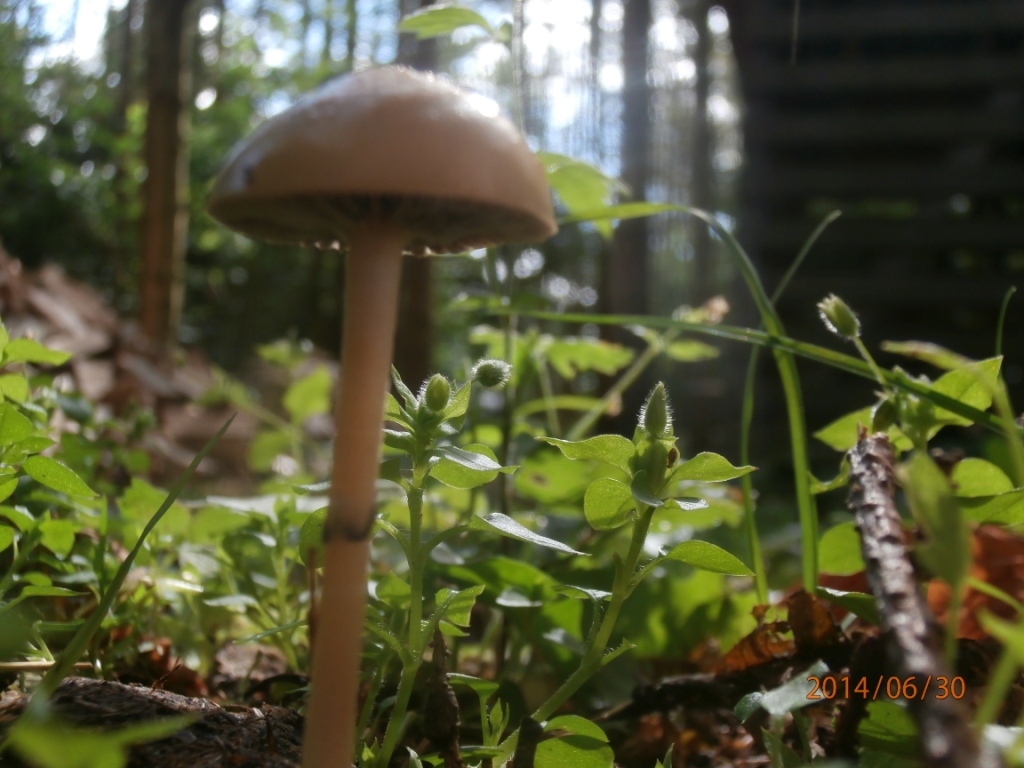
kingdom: Fungi
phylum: Basidiomycota
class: Agaricomycetes
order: Agaricales
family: Strophariaceae
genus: Protostropharia
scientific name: Protostropharia semiglobata
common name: halvkugleformet bredblad
